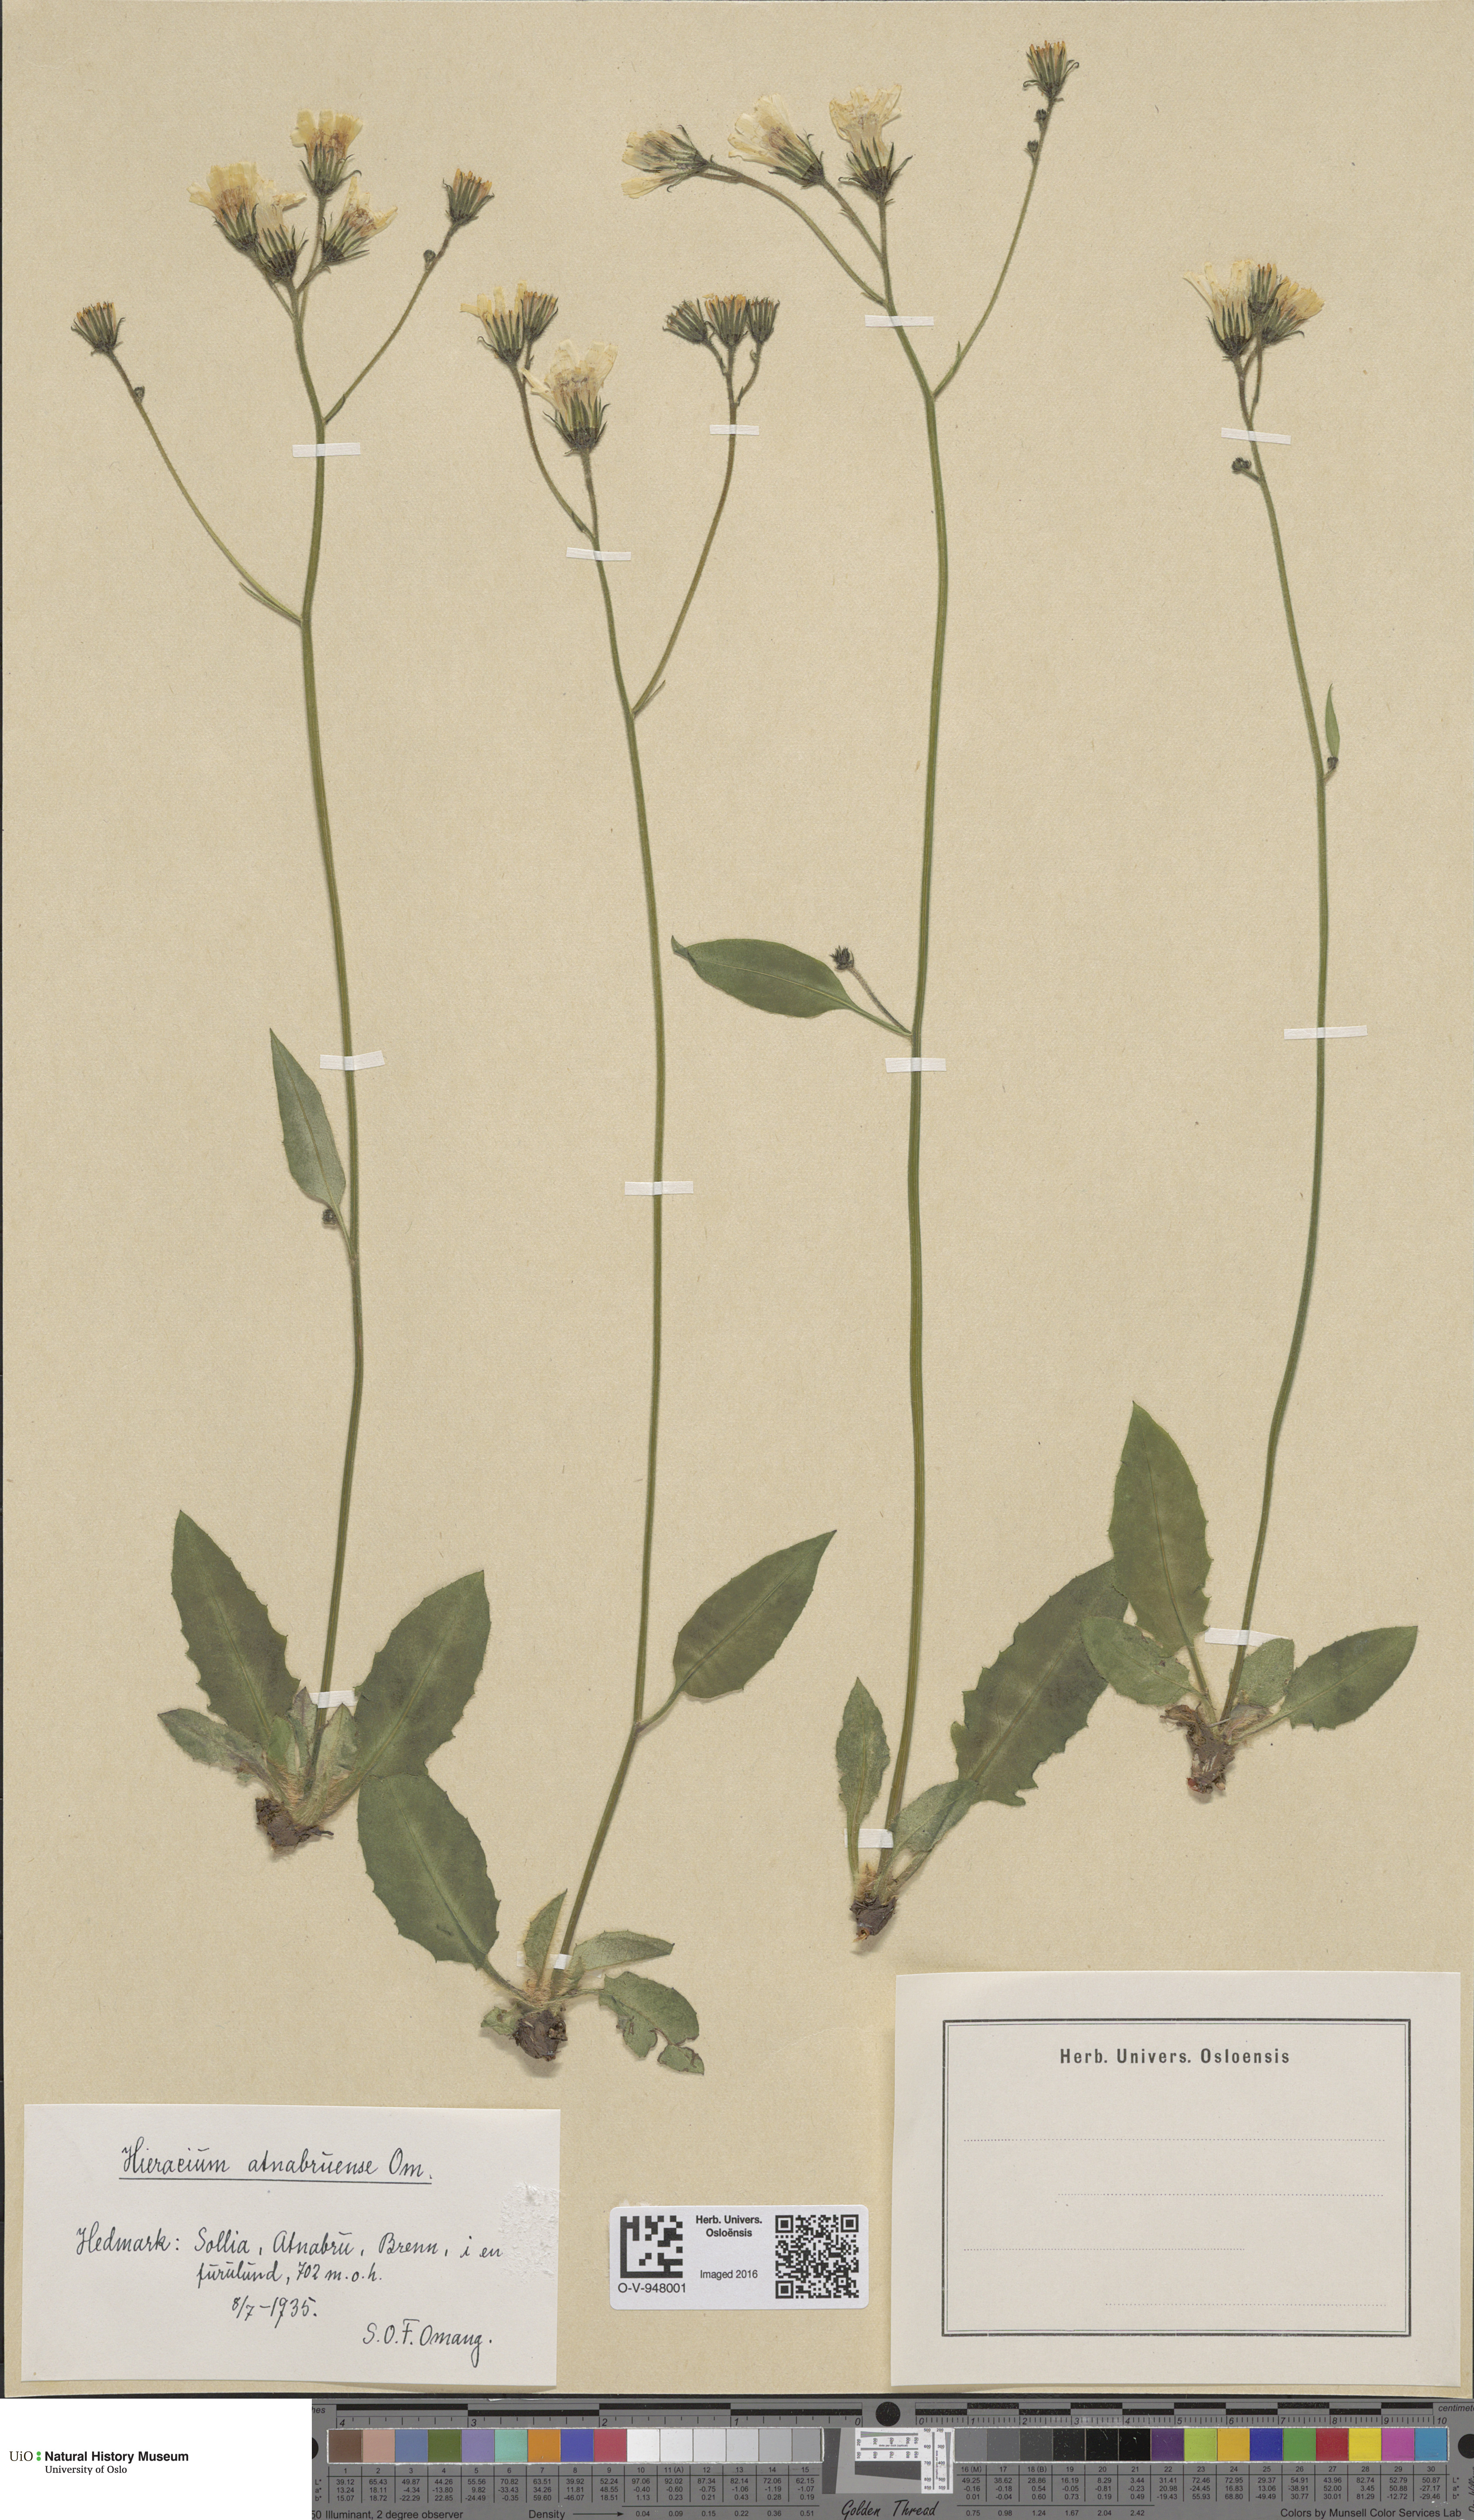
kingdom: Plantae
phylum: Tracheophyta
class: Magnoliopsida
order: Asterales
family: Asteraceae
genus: Hieracium
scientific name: Hieracium
